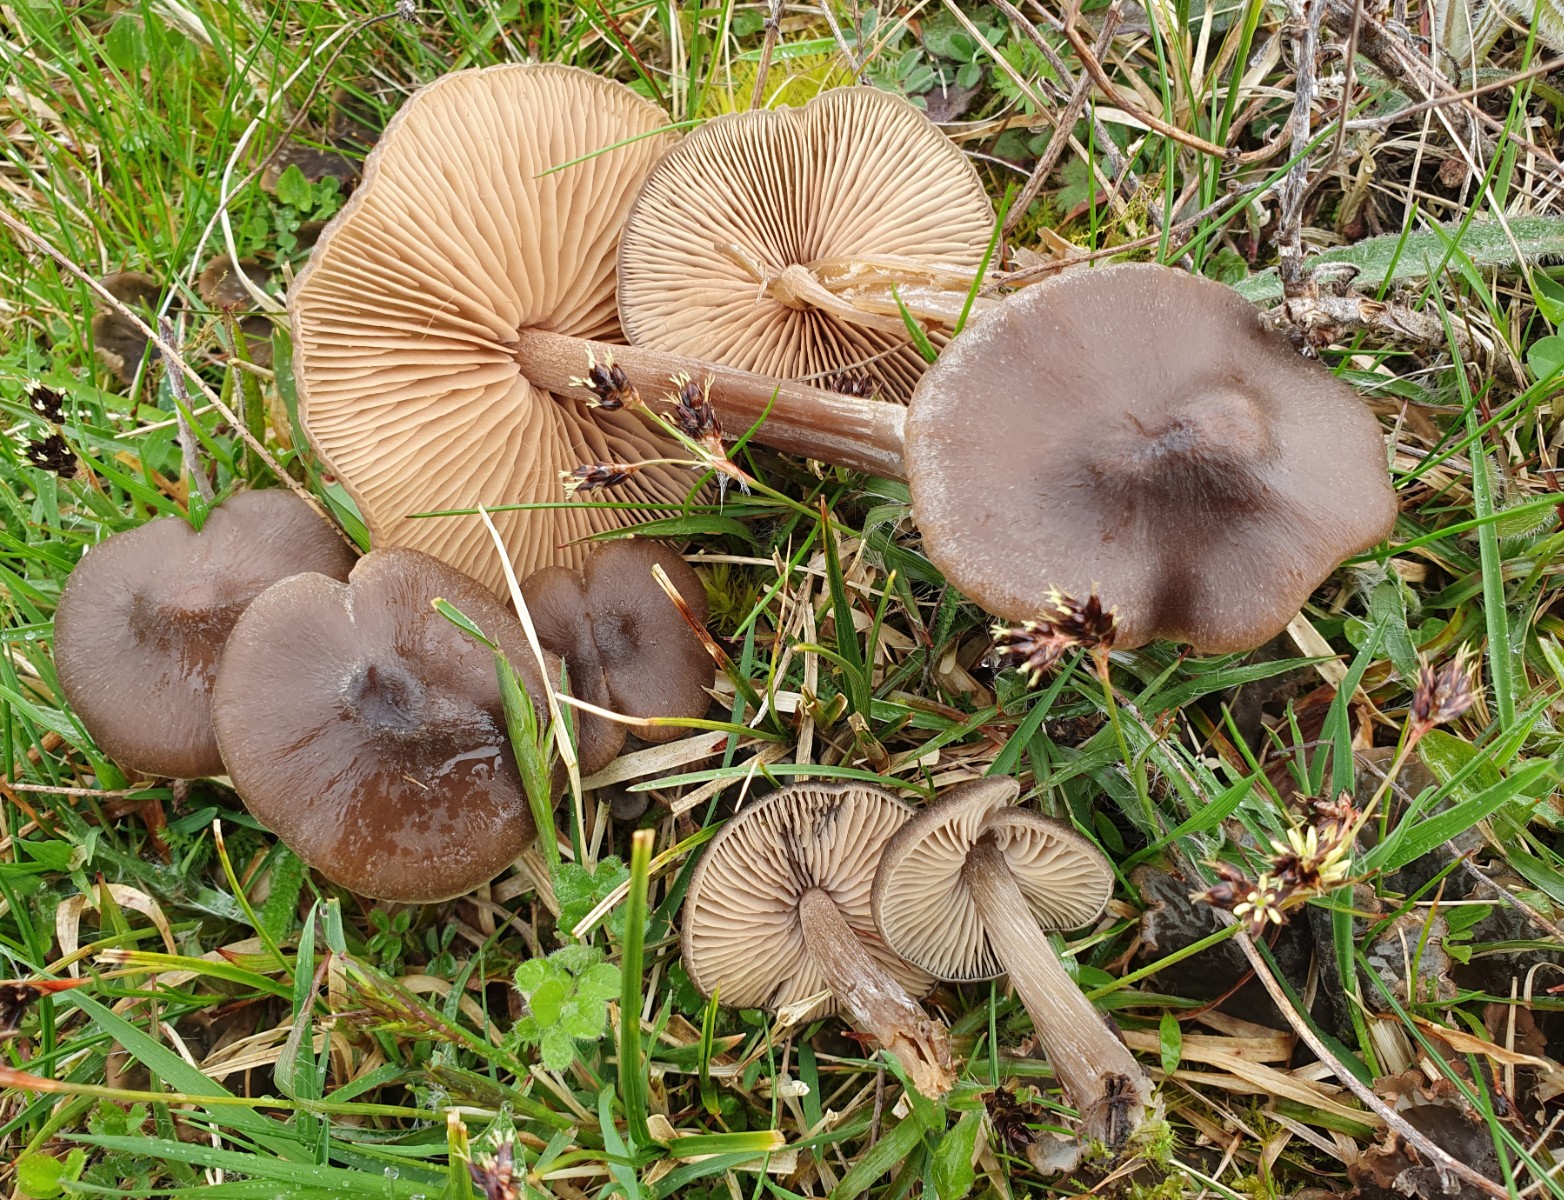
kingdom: Fungi
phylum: Basidiomycota
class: Agaricomycetes
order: Agaricales
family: Entolomataceae
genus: Entoloma
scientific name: Entoloma vernum
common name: vår-rødblad
